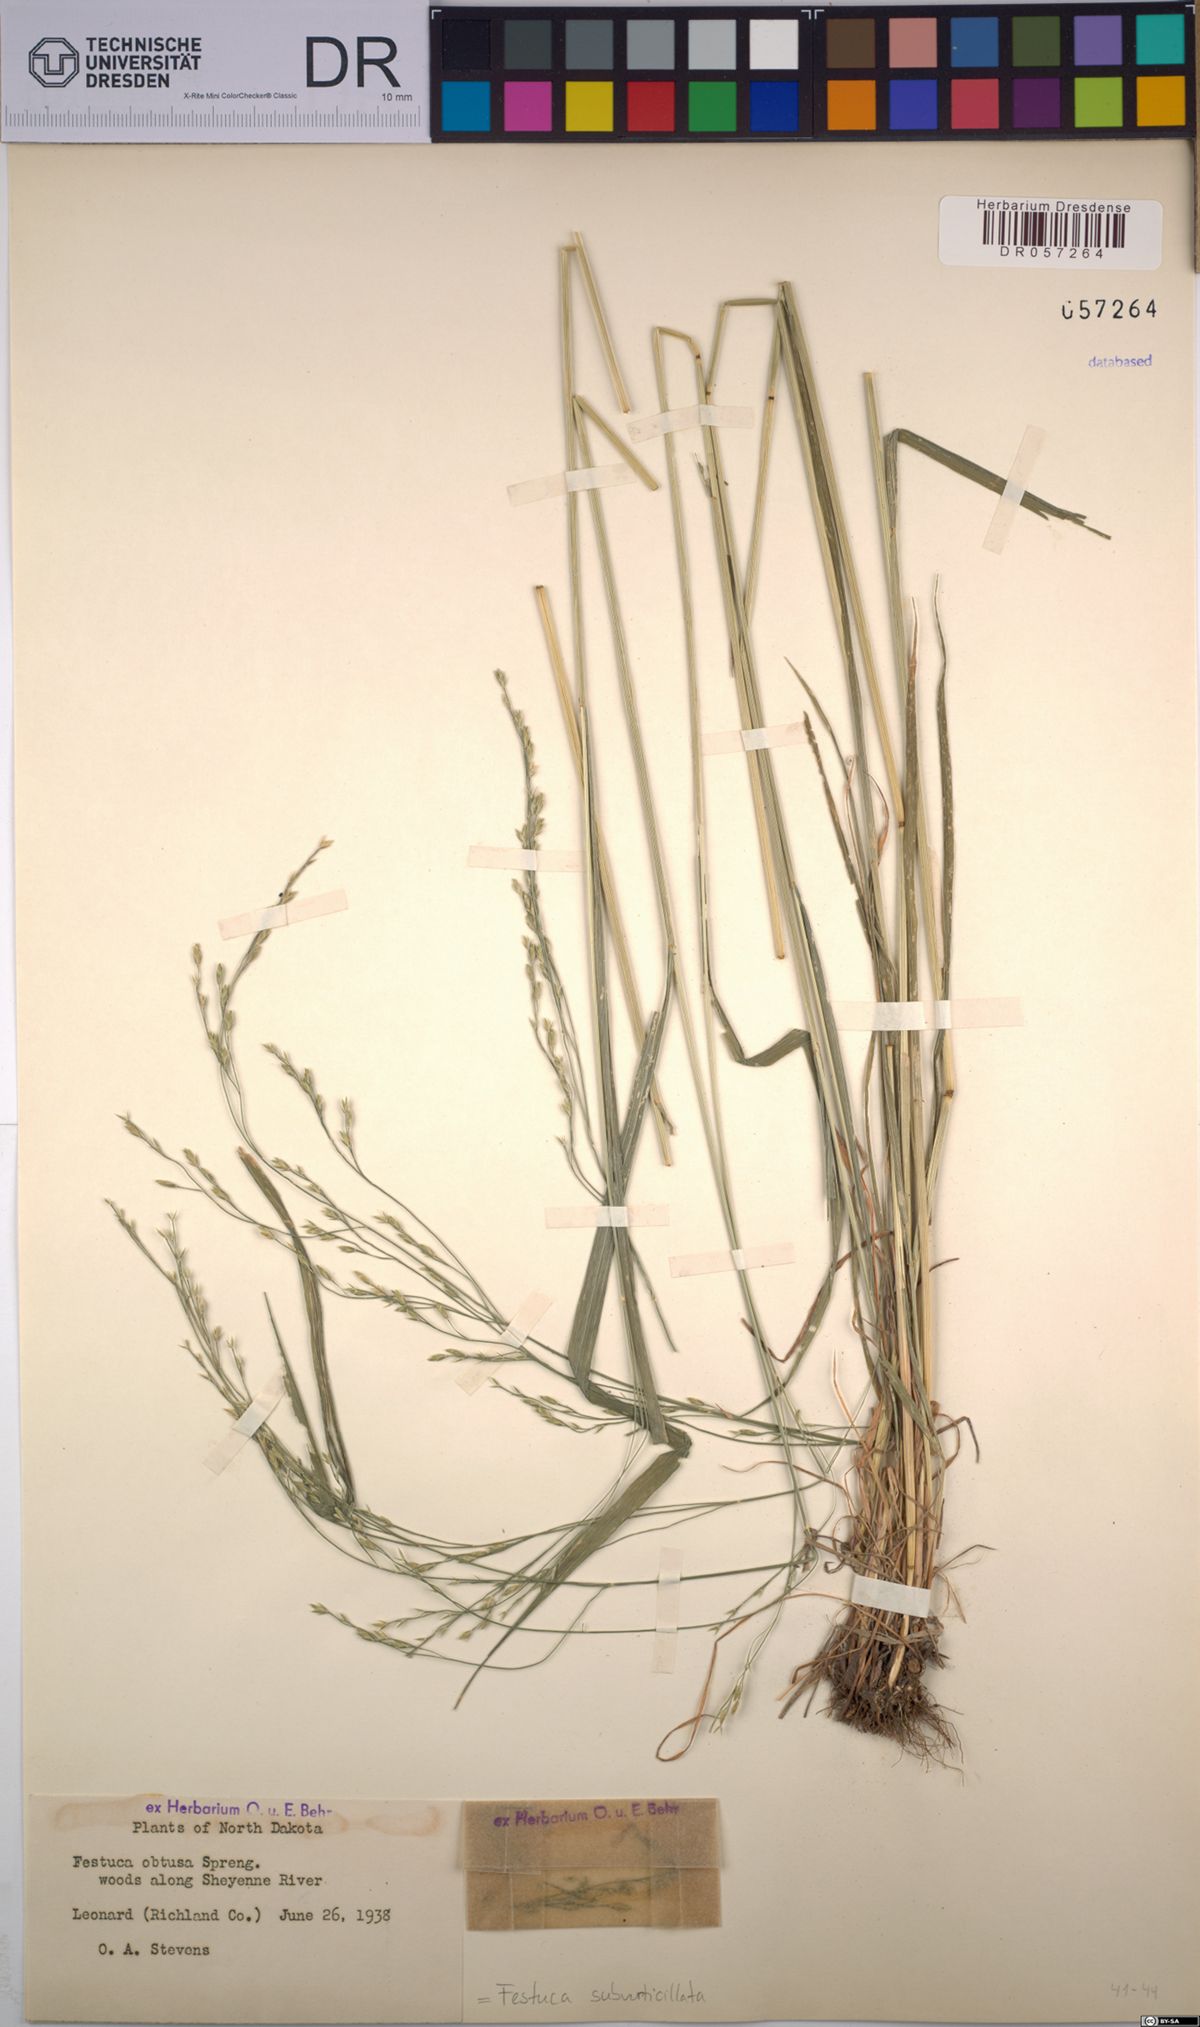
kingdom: Plantae
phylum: Tracheophyta
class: Liliopsida
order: Poales
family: Poaceae
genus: Festuca
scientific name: Festuca subverticillata
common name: Nodding fescue
